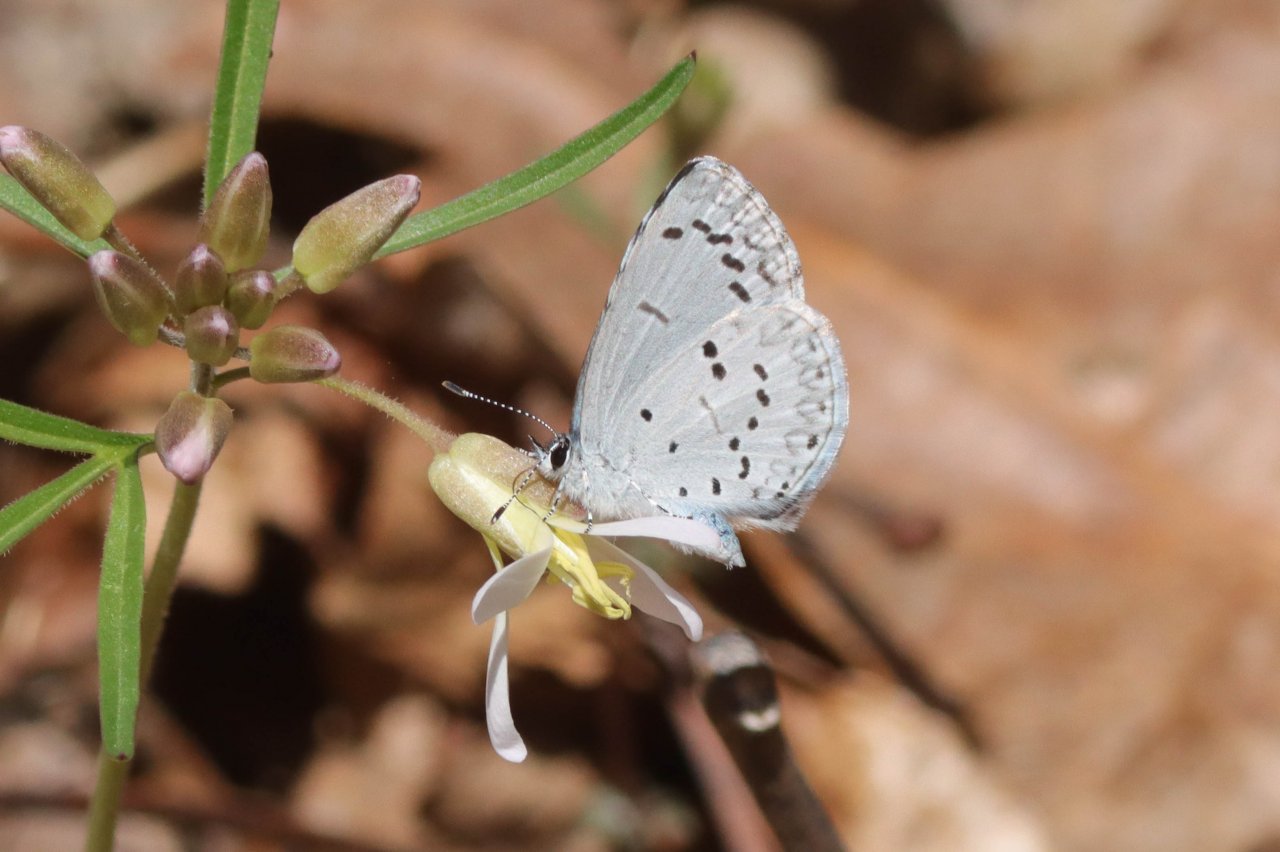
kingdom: Animalia
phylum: Arthropoda
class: Insecta
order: Lepidoptera
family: Lycaenidae
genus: Celastrina
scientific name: Celastrina ladon
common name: Spring Azure
